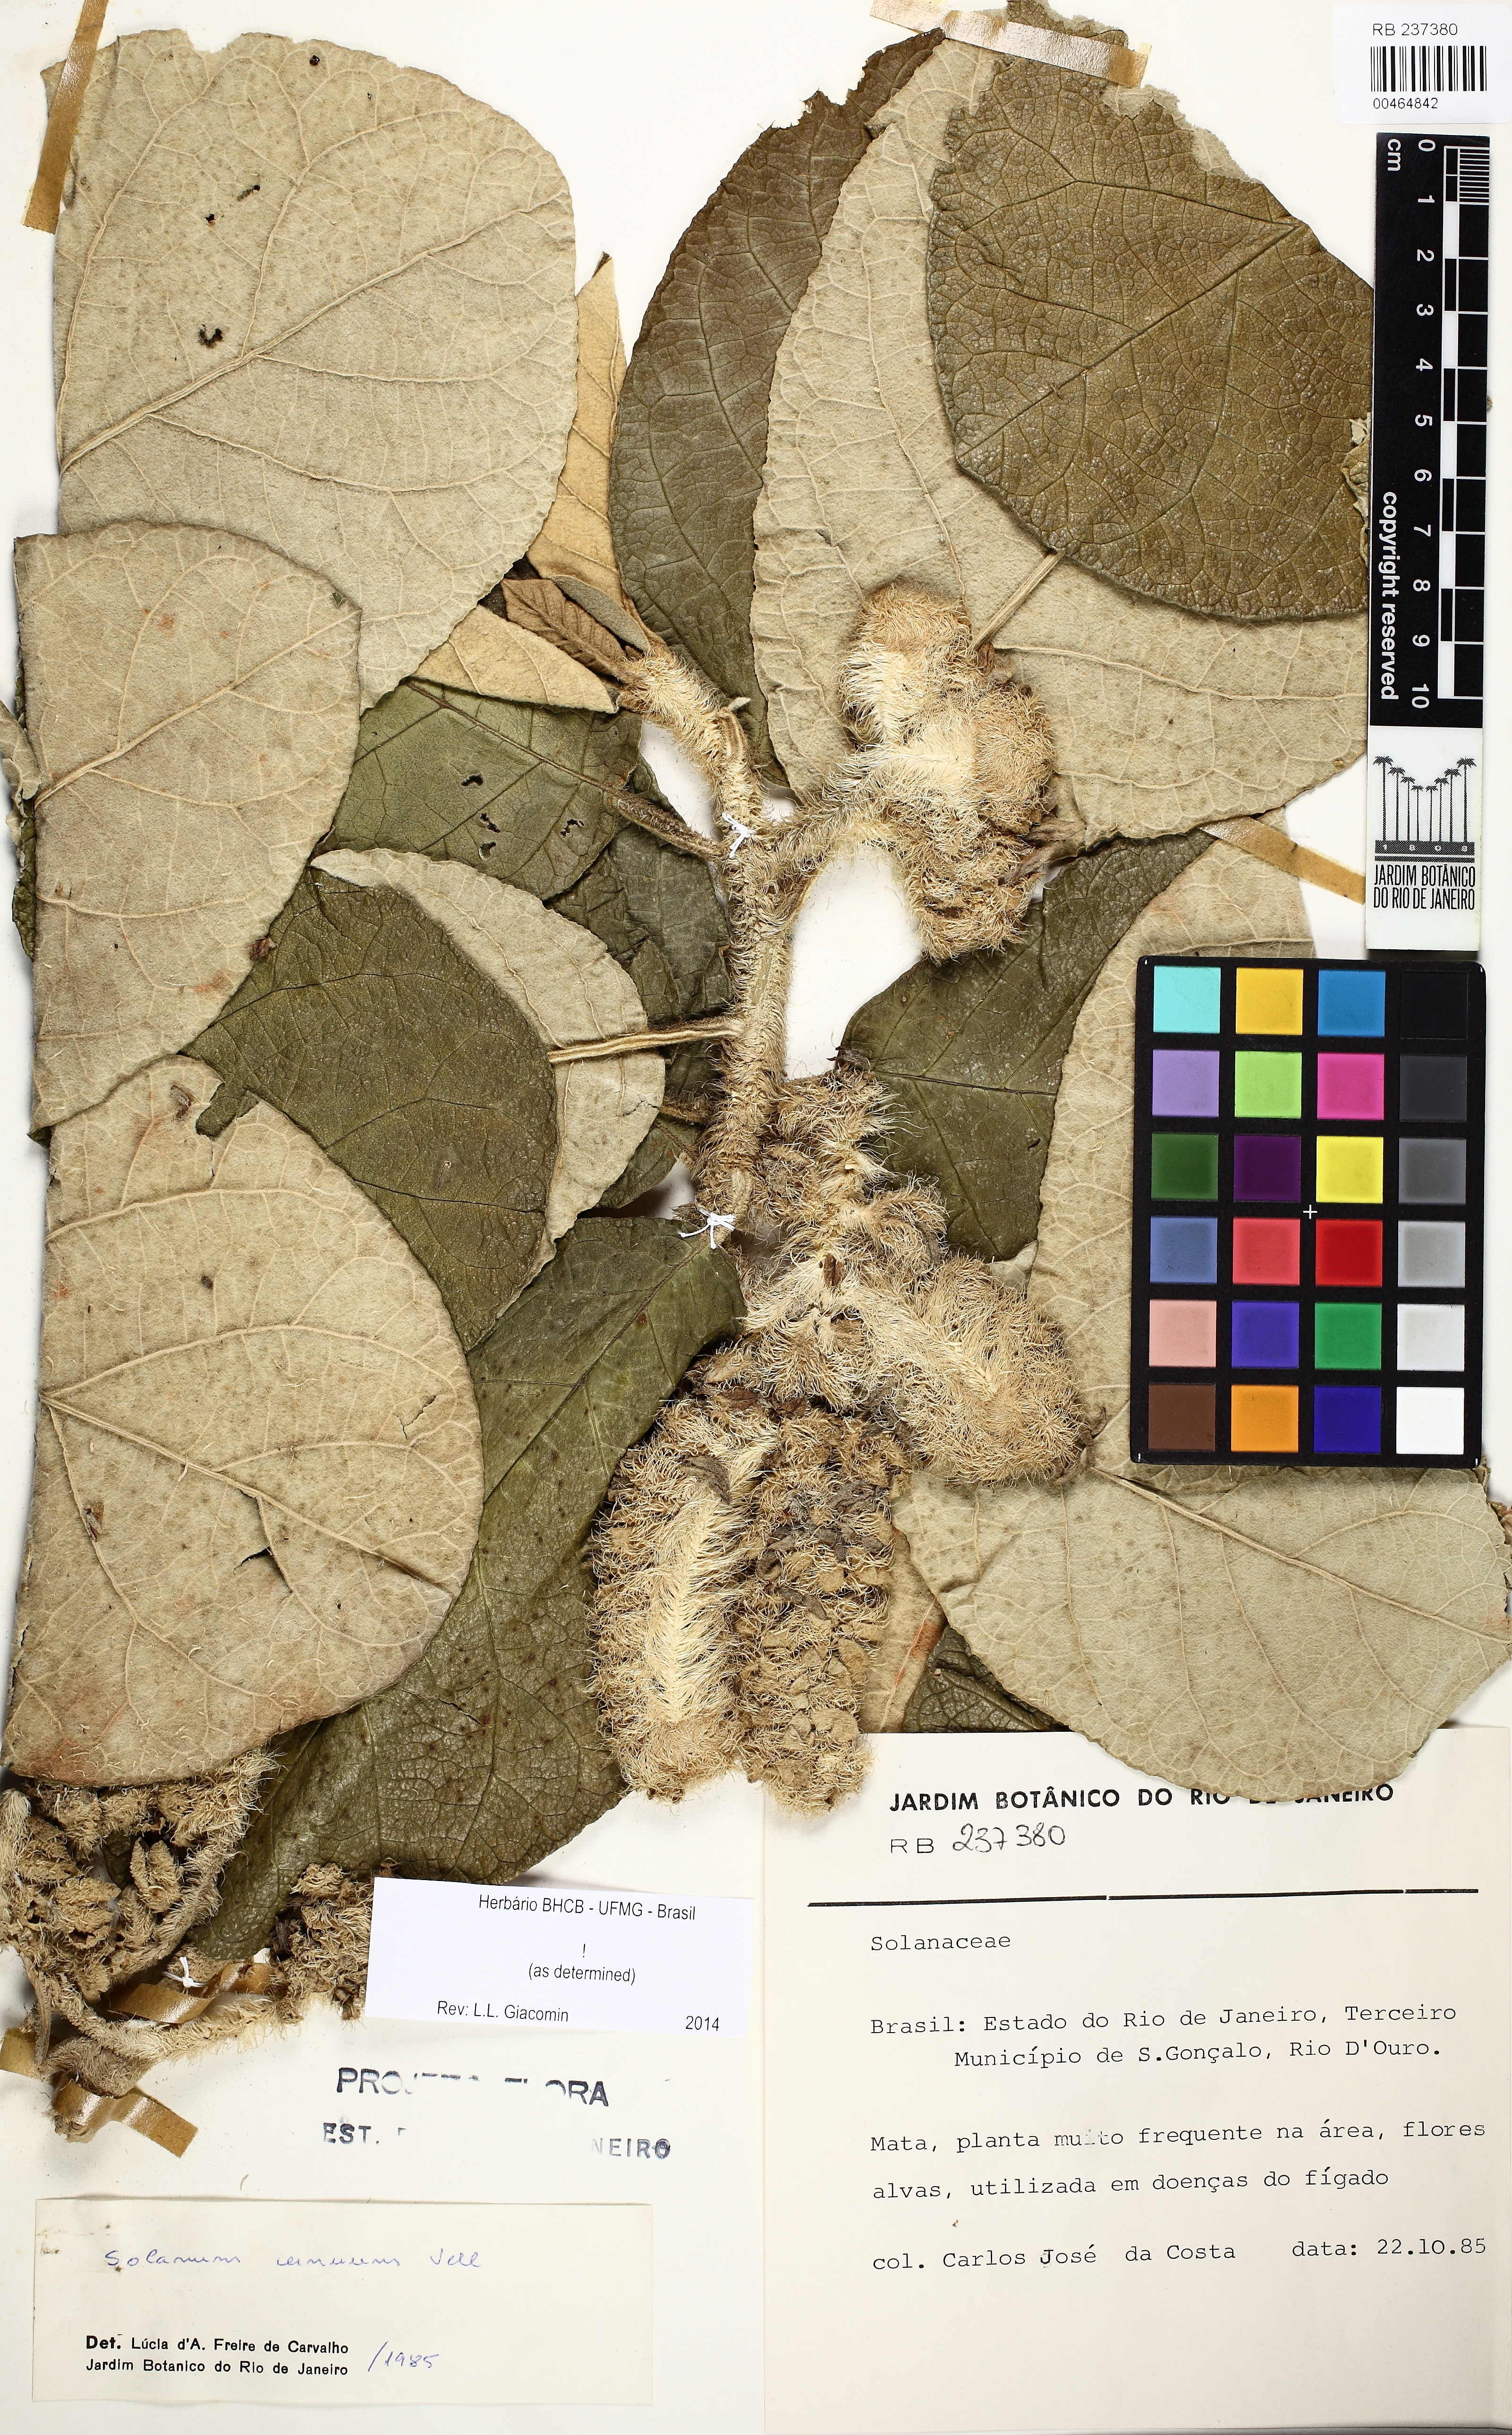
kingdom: Plantae
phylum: Tracheophyta
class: Magnoliopsida
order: Solanales
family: Solanaceae
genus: Solanum
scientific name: Solanum cernuum
